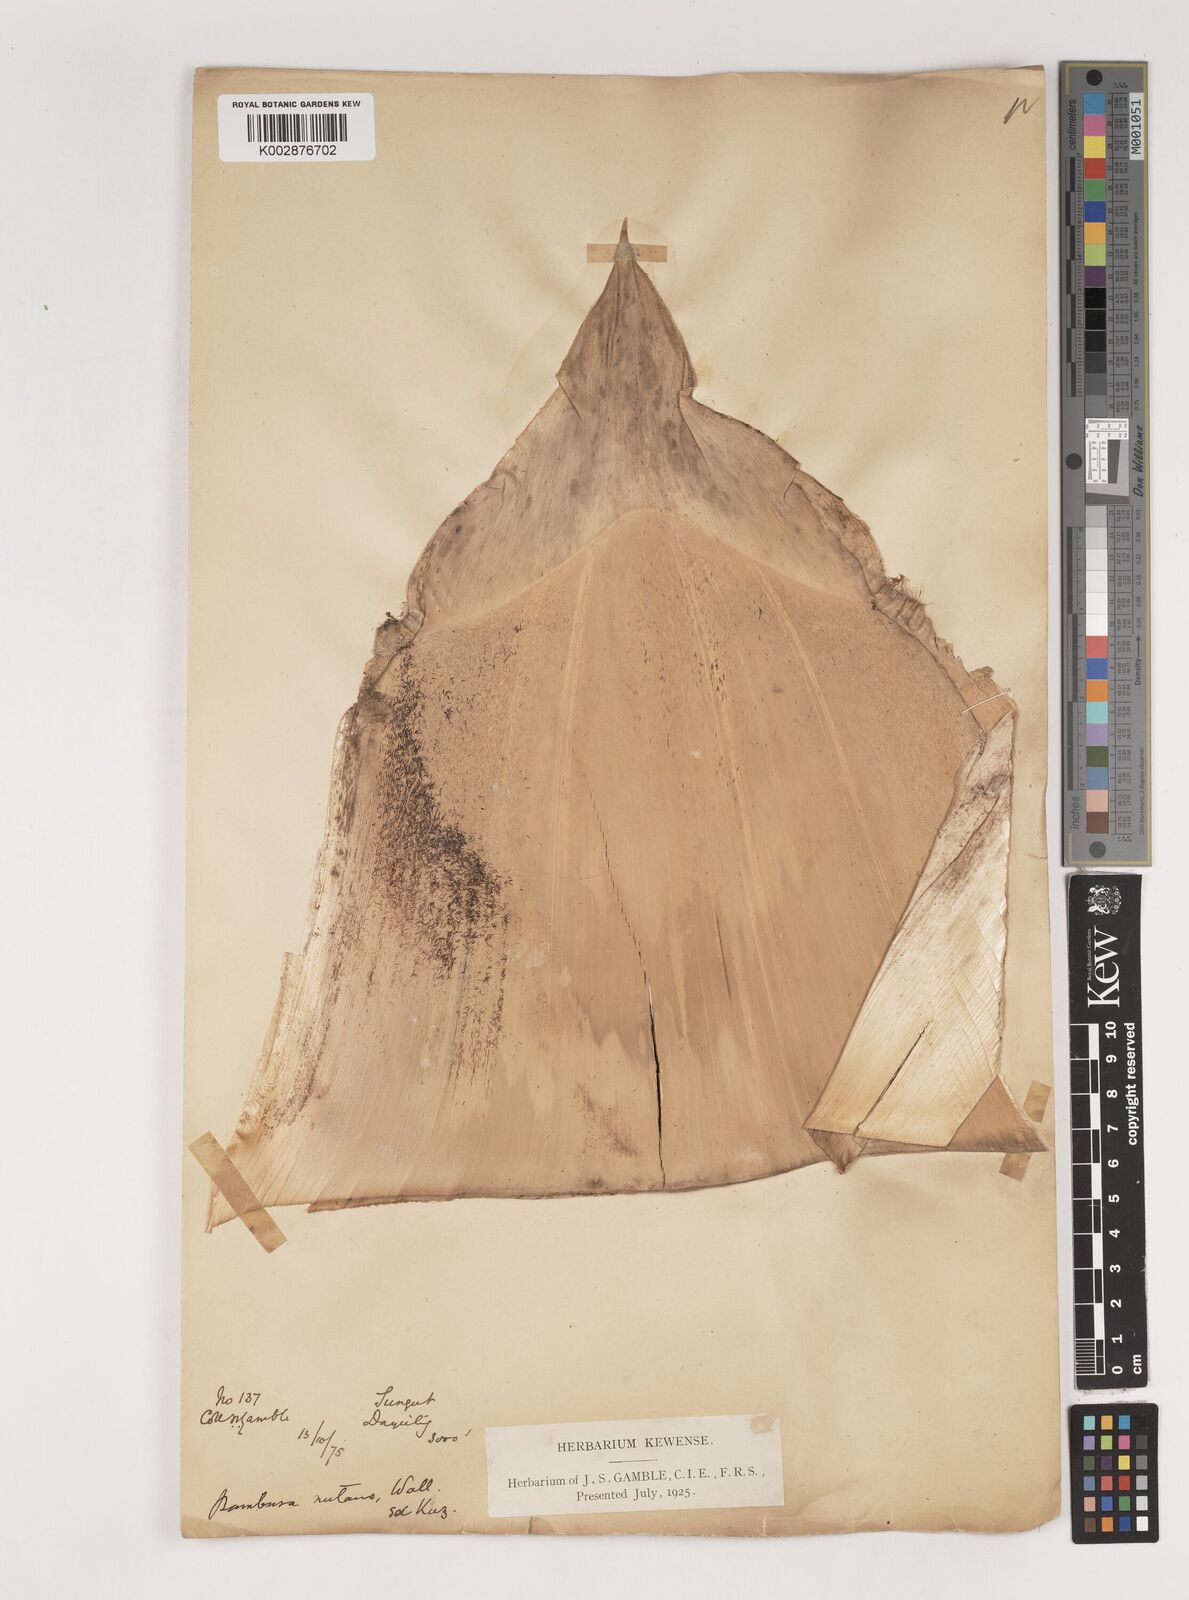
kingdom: Plantae
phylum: Tracheophyta
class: Liliopsida
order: Poales
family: Poaceae
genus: Bambusa
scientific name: Bambusa nutans
